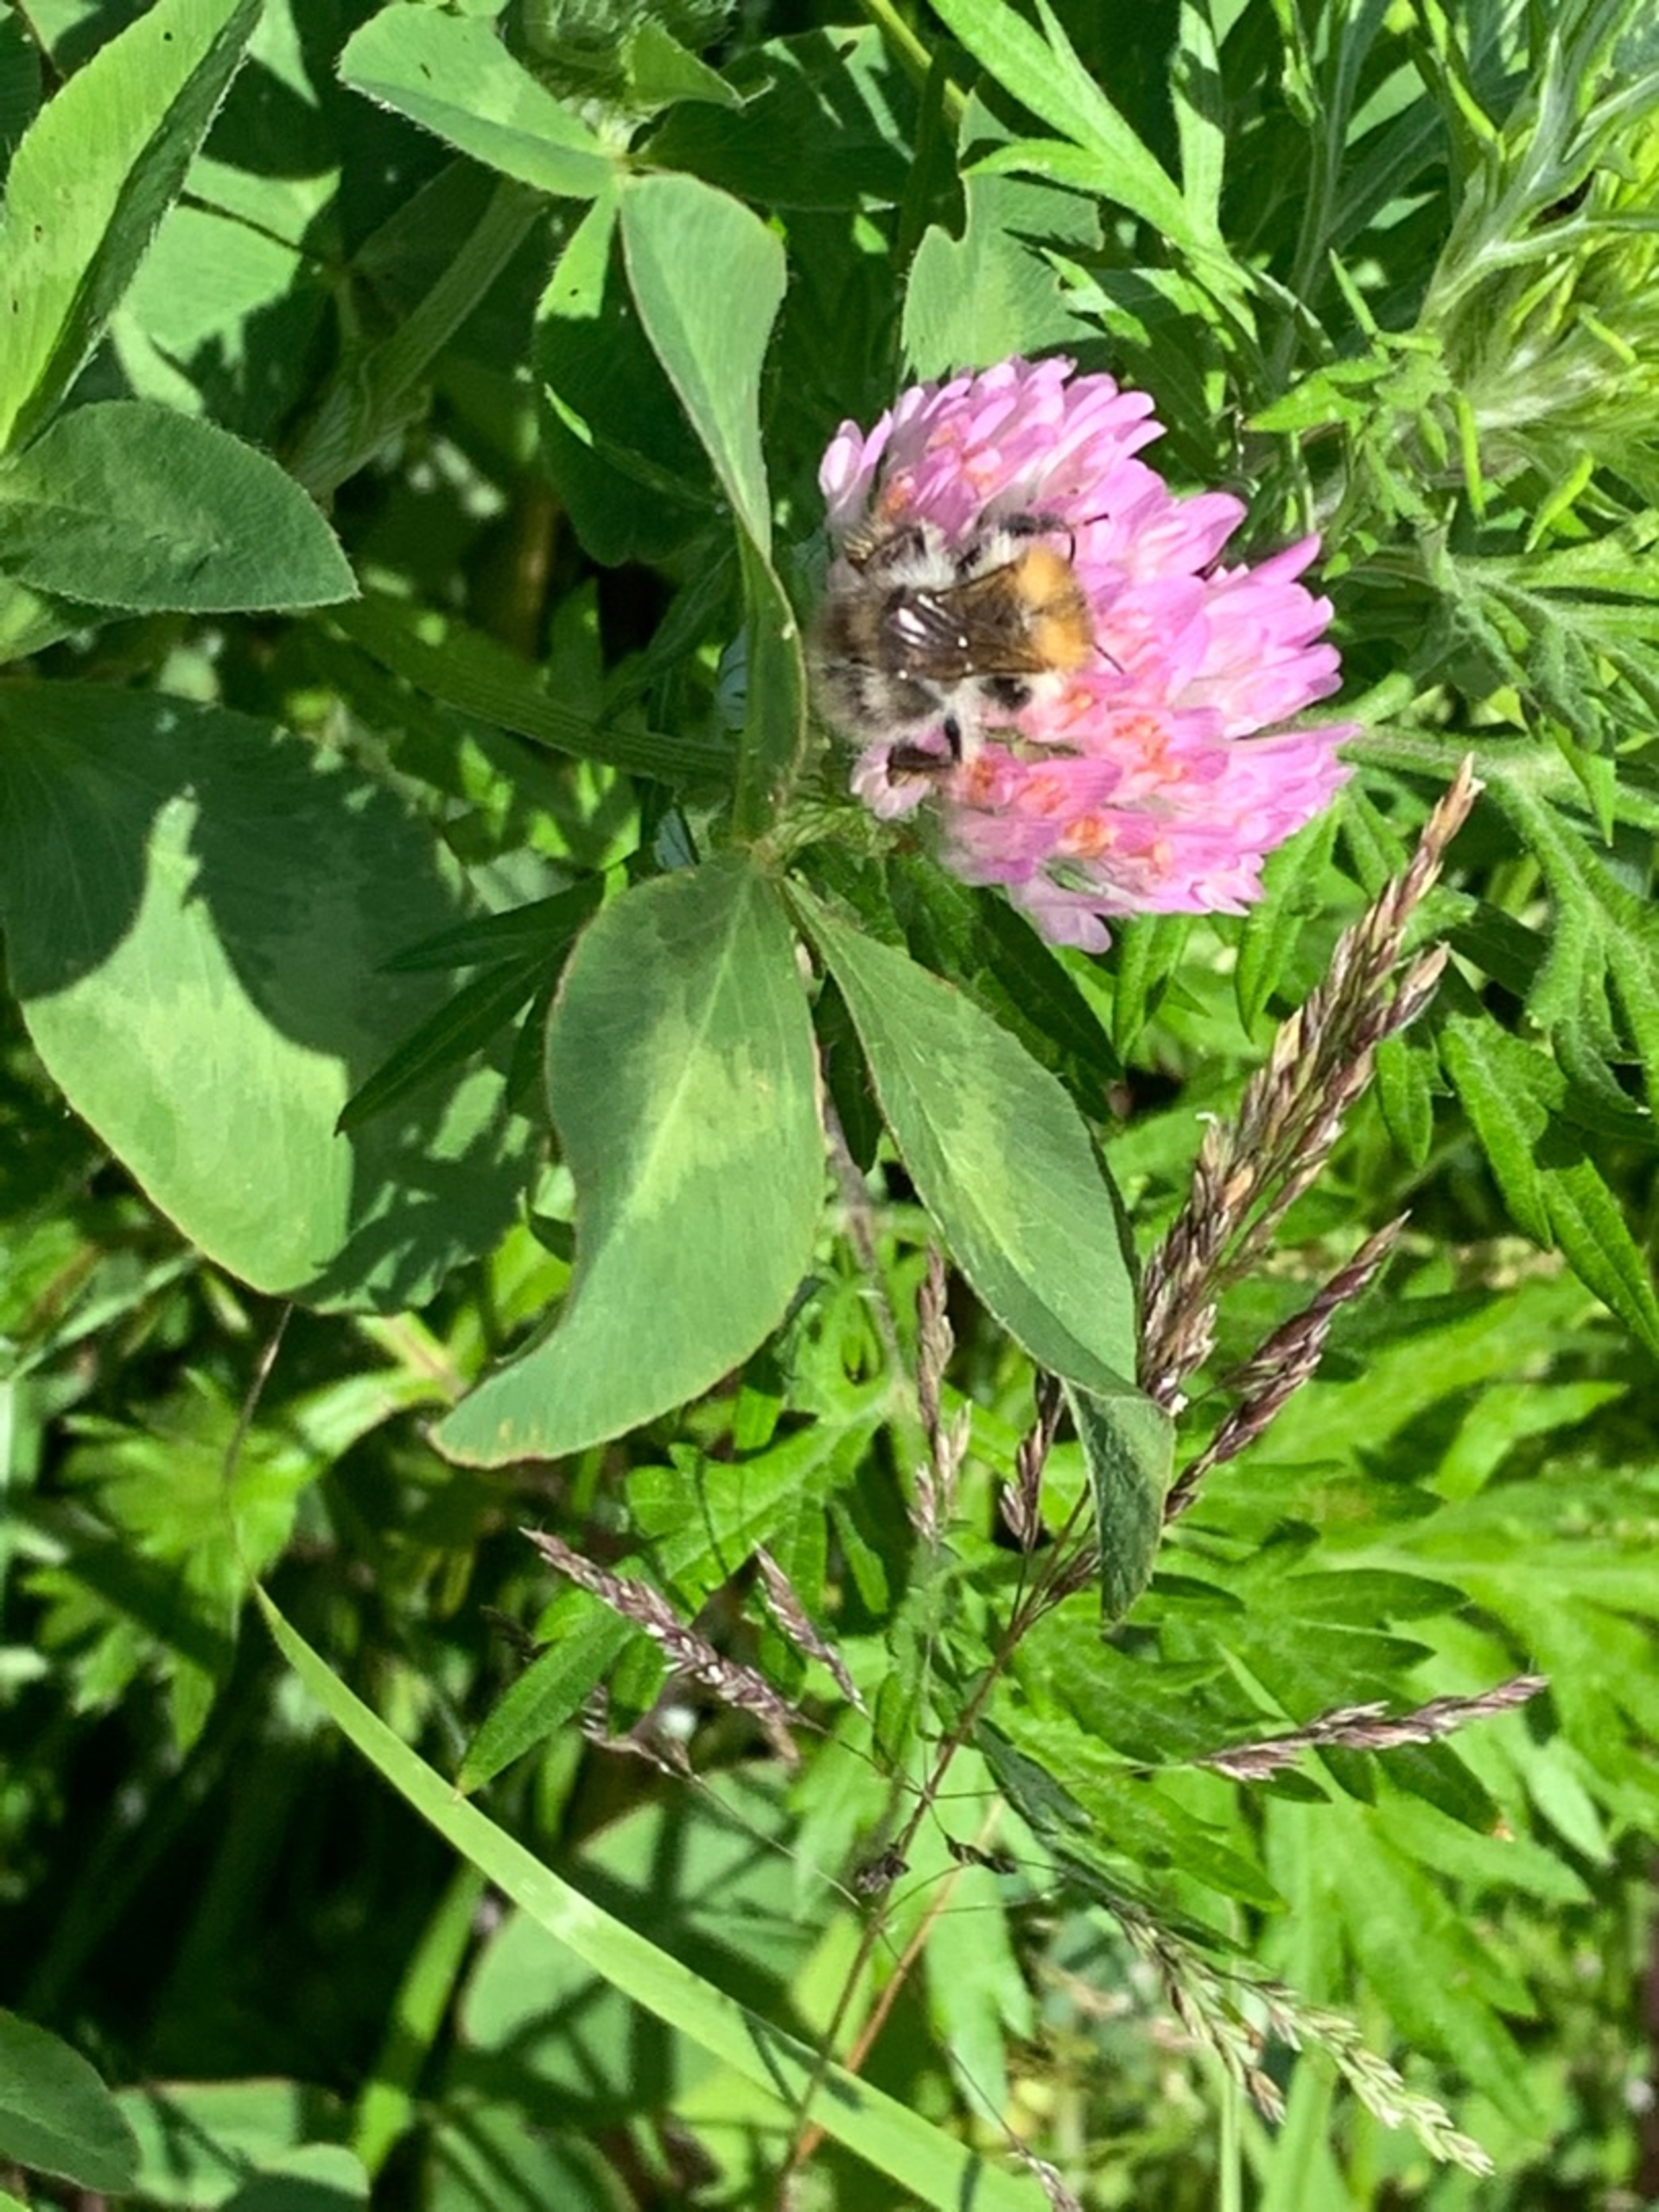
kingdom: Animalia
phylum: Arthropoda
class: Insecta
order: Hymenoptera
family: Apidae
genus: Bombus
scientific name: Bombus pascuorum
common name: Agerhumle
